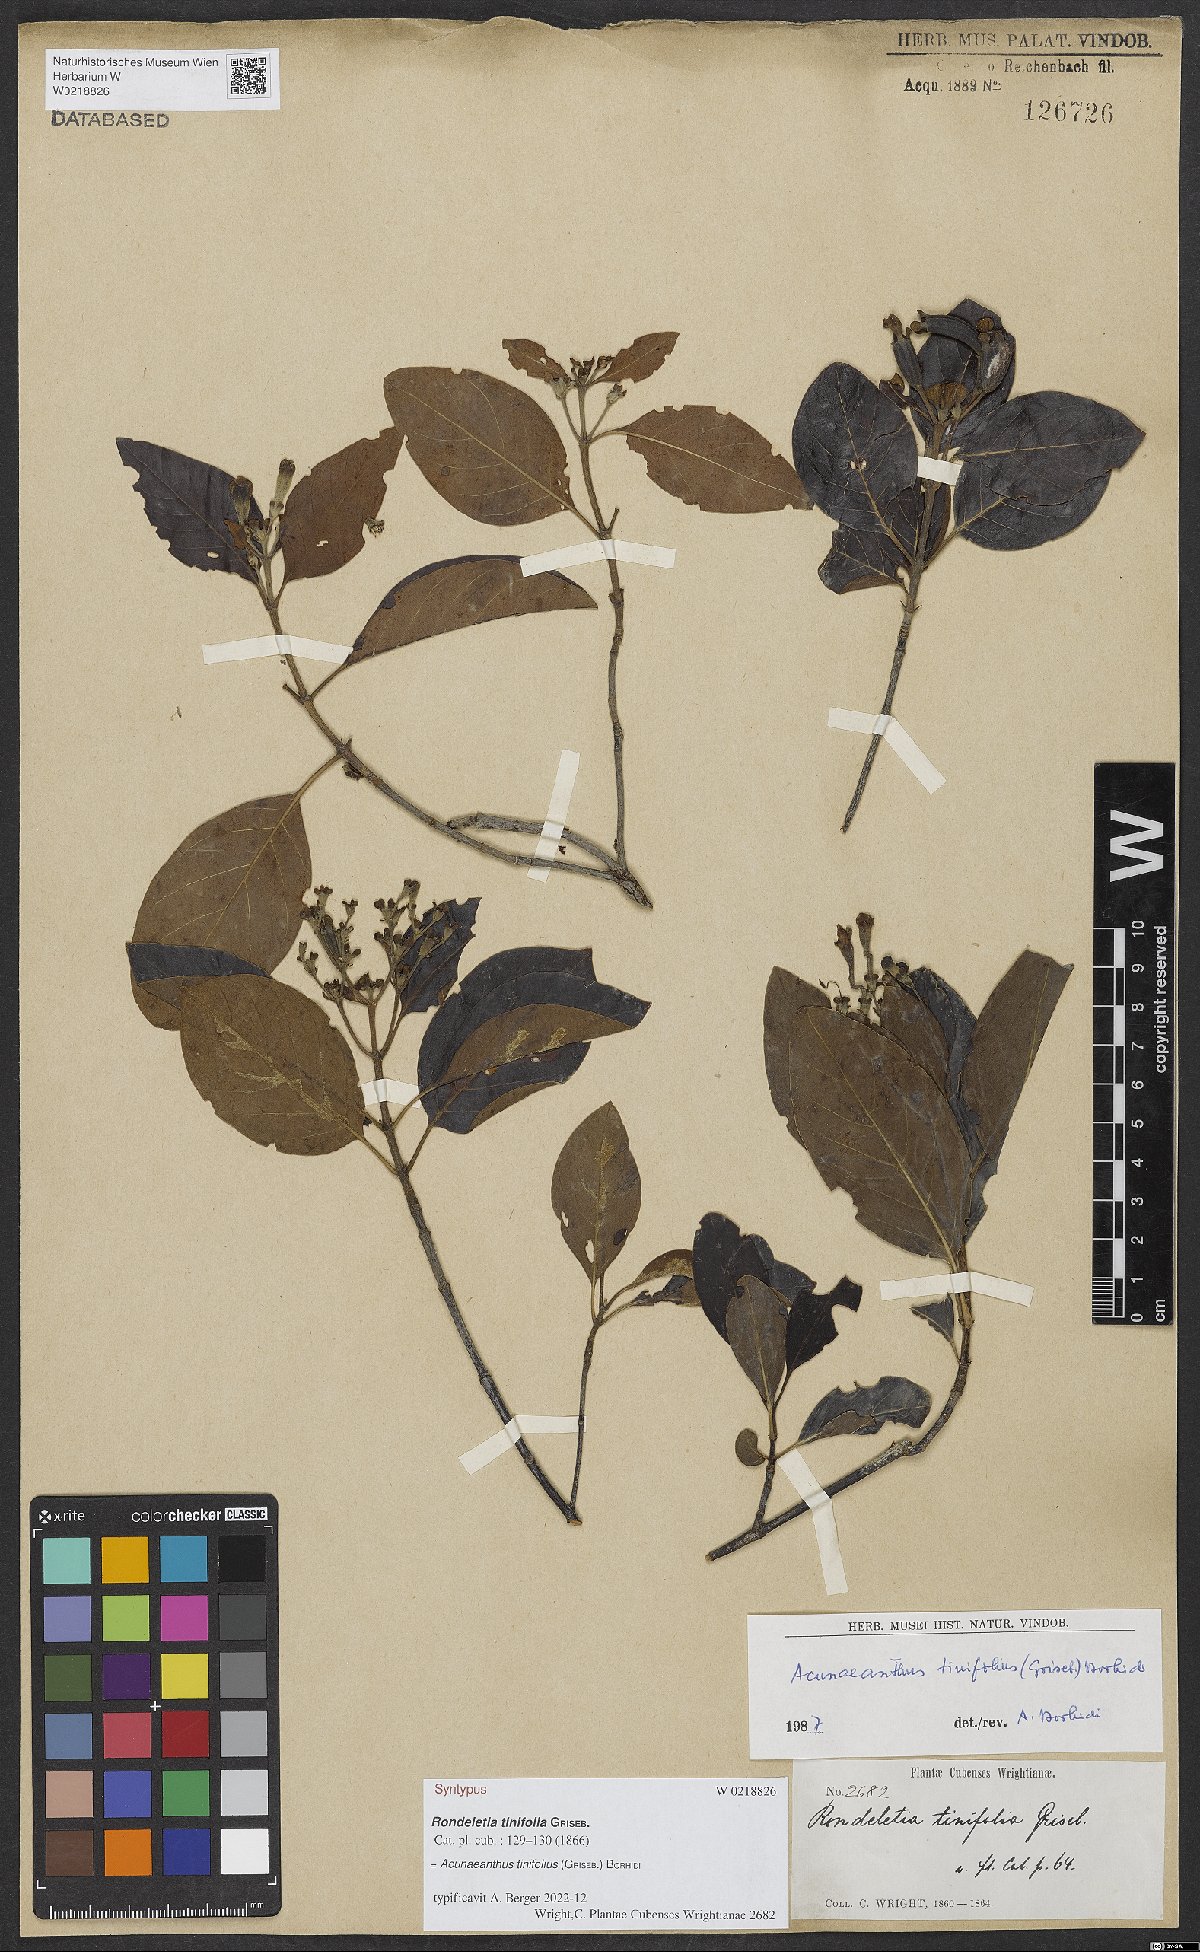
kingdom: Plantae
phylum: Tracheophyta
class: Magnoliopsida
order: Gentianales
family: Rubiaceae
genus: Acunaeanthus
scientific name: Acunaeanthus tinifolius
